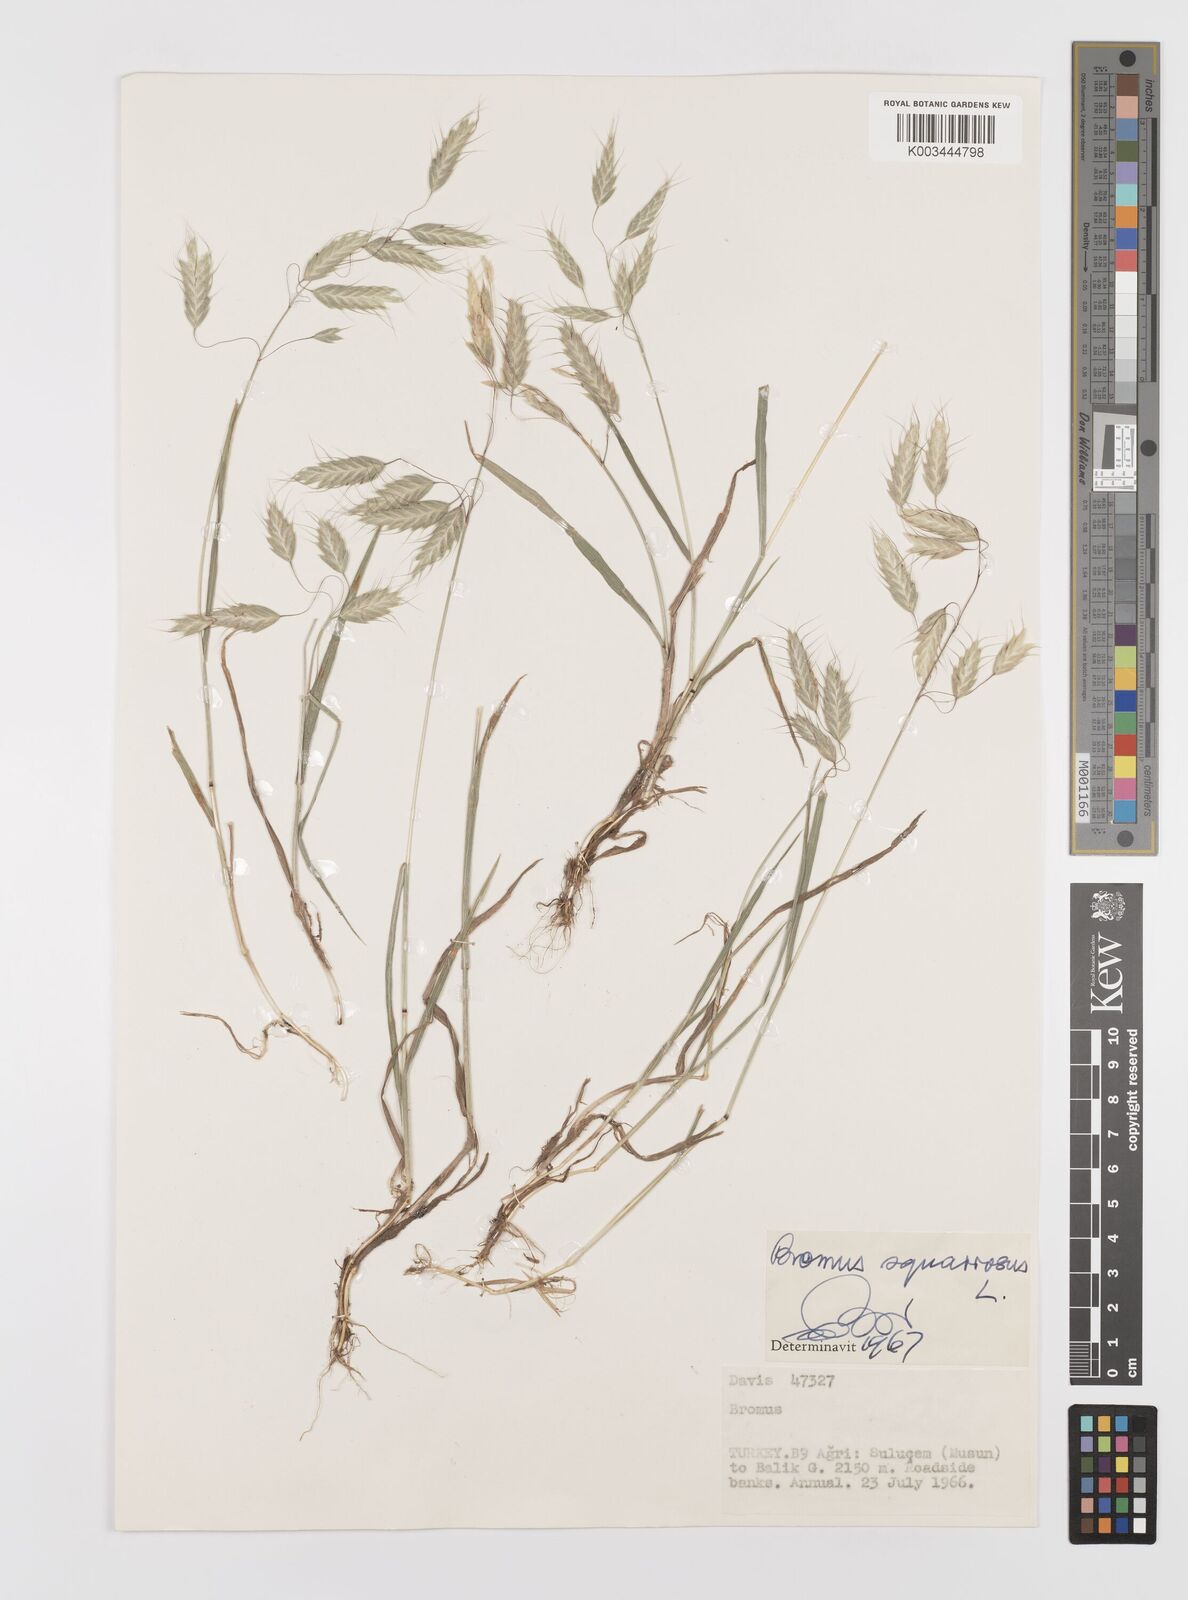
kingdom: Plantae
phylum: Tracheophyta
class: Liliopsida
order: Poales
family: Poaceae
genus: Bromus
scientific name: Bromus squarrosus
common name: Corn brome
